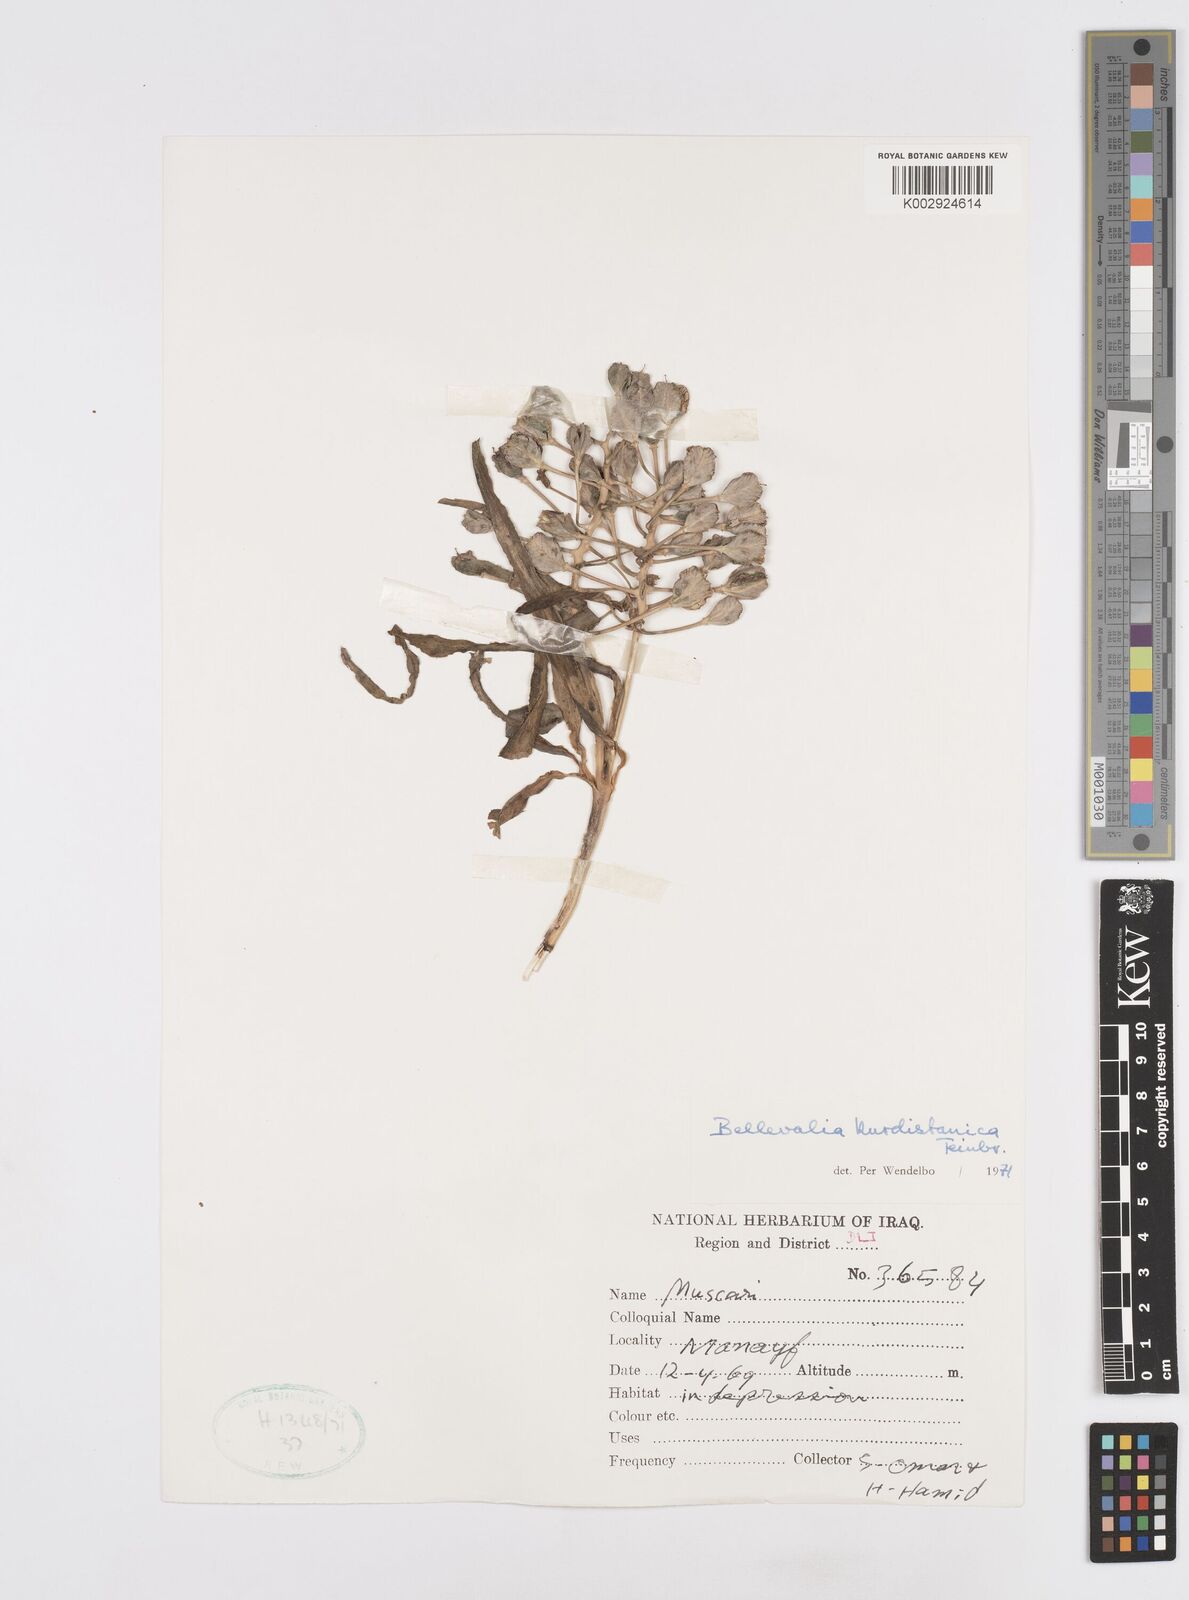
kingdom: Plantae
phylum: Tracheophyta
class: Liliopsida
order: Asparagales
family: Asparagaceae
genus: Bellevalia
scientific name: Bellevalia kurdistanica
